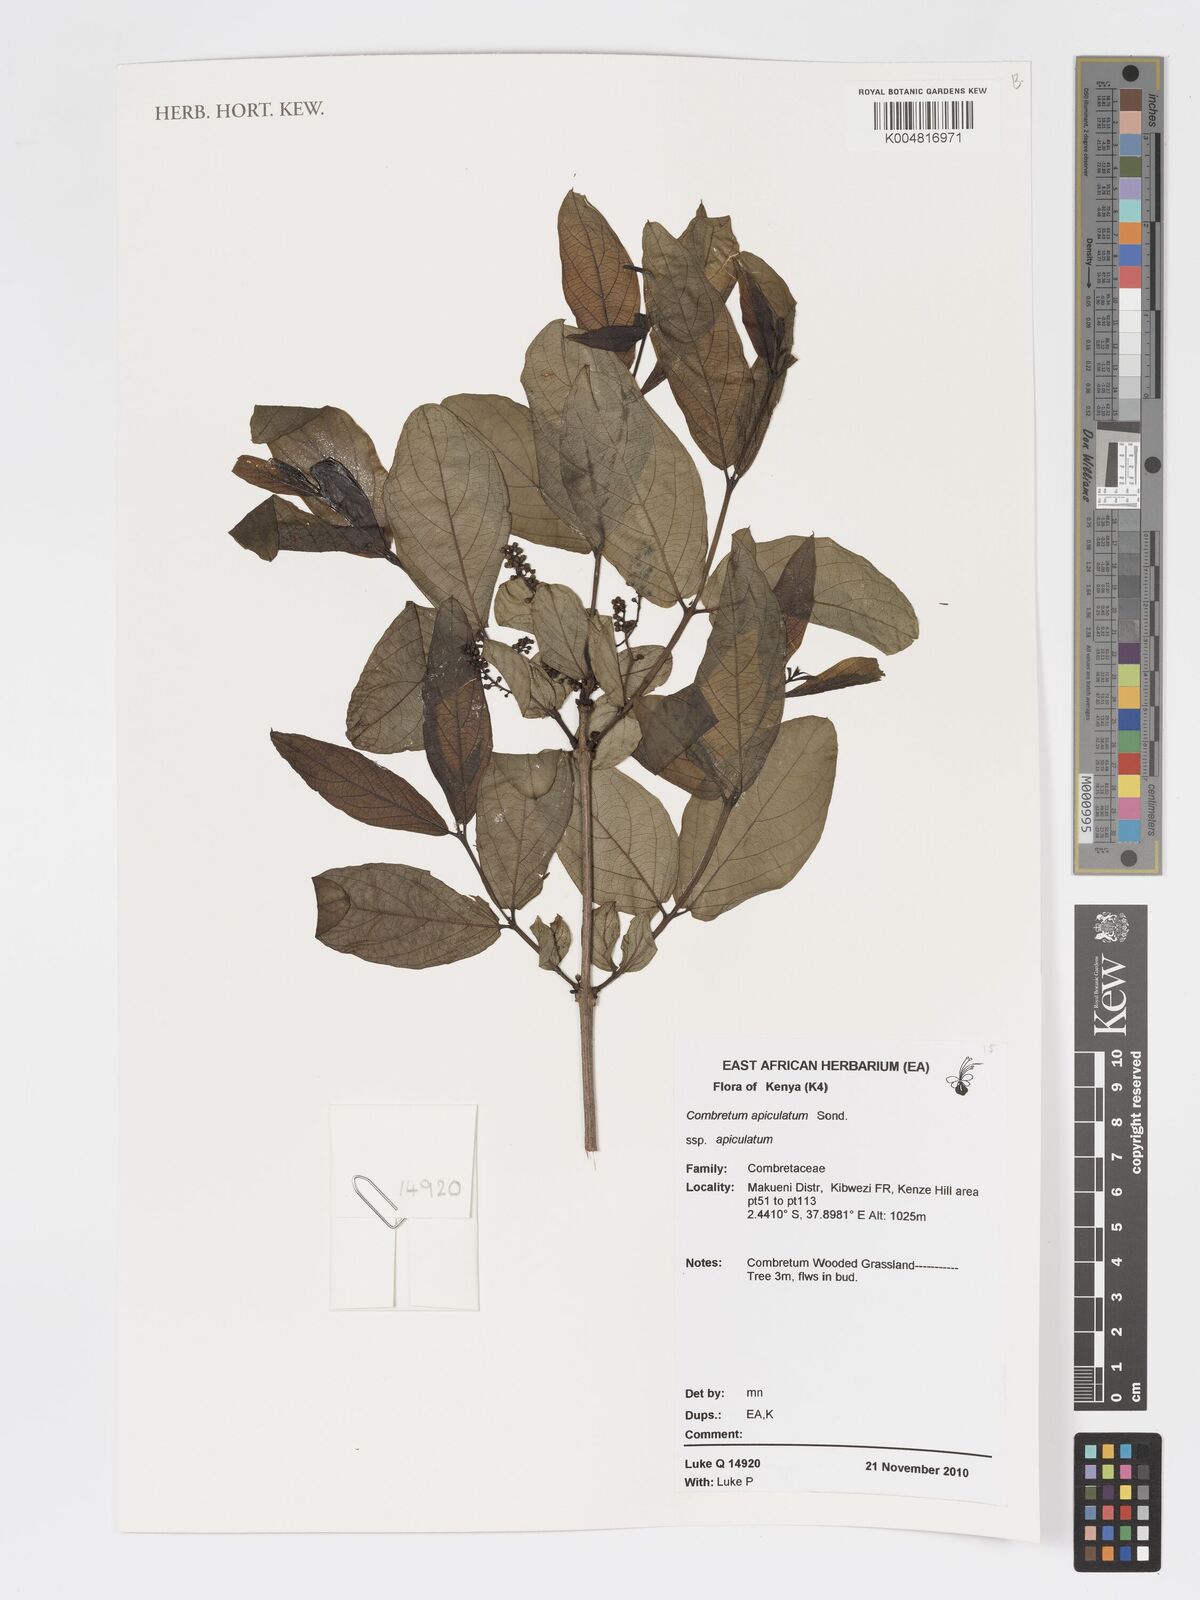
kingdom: Plantae
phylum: Tracheophyta
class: Magnoliopsida
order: Myrtales
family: Combretaceae
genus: Combretum
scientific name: Combretum apiculatum
